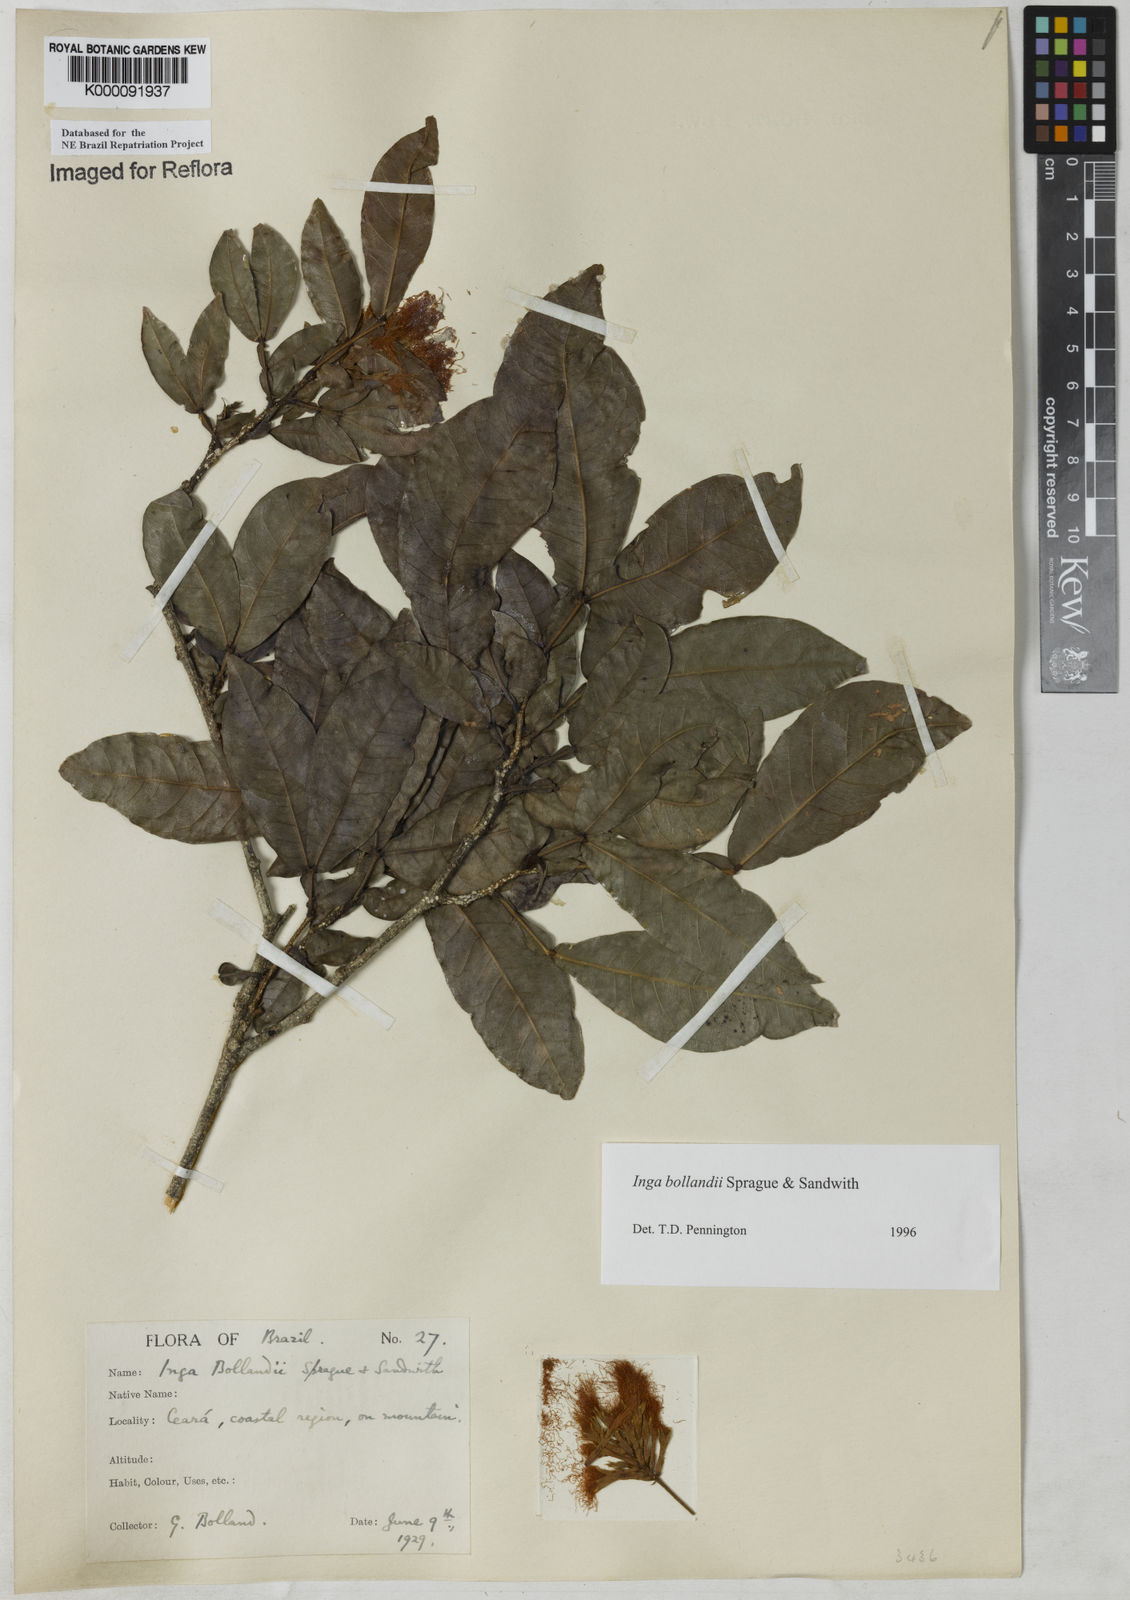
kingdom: Plantae
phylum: Tracheophyta
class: Magnoliopsida
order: Fabales
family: Fabaceae
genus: Inga
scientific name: Inga bollandii
